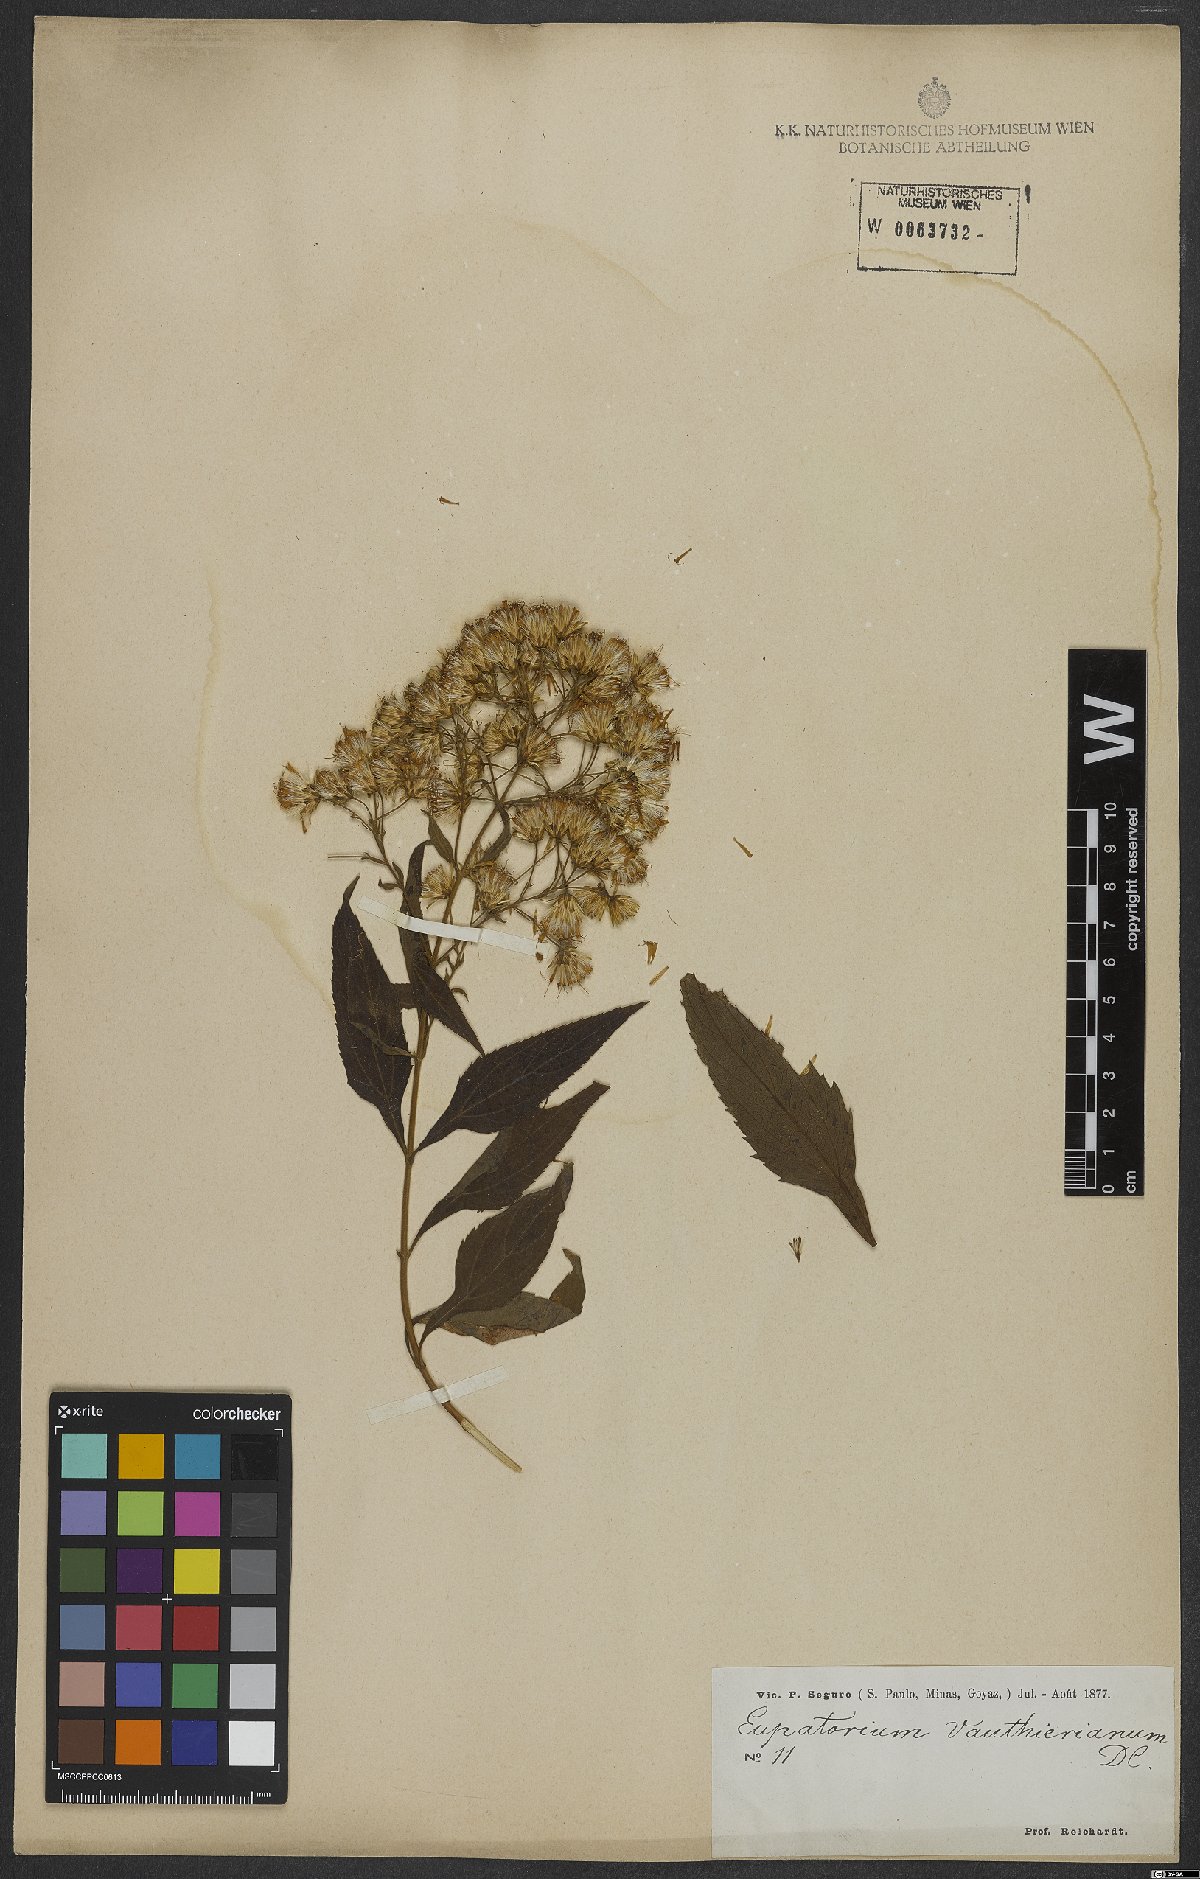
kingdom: Plantae
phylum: Tracheophyta
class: Magnoliopsida
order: Asterales
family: Asteraceae
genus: Heterocondylus
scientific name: Heterocondylus alatus
